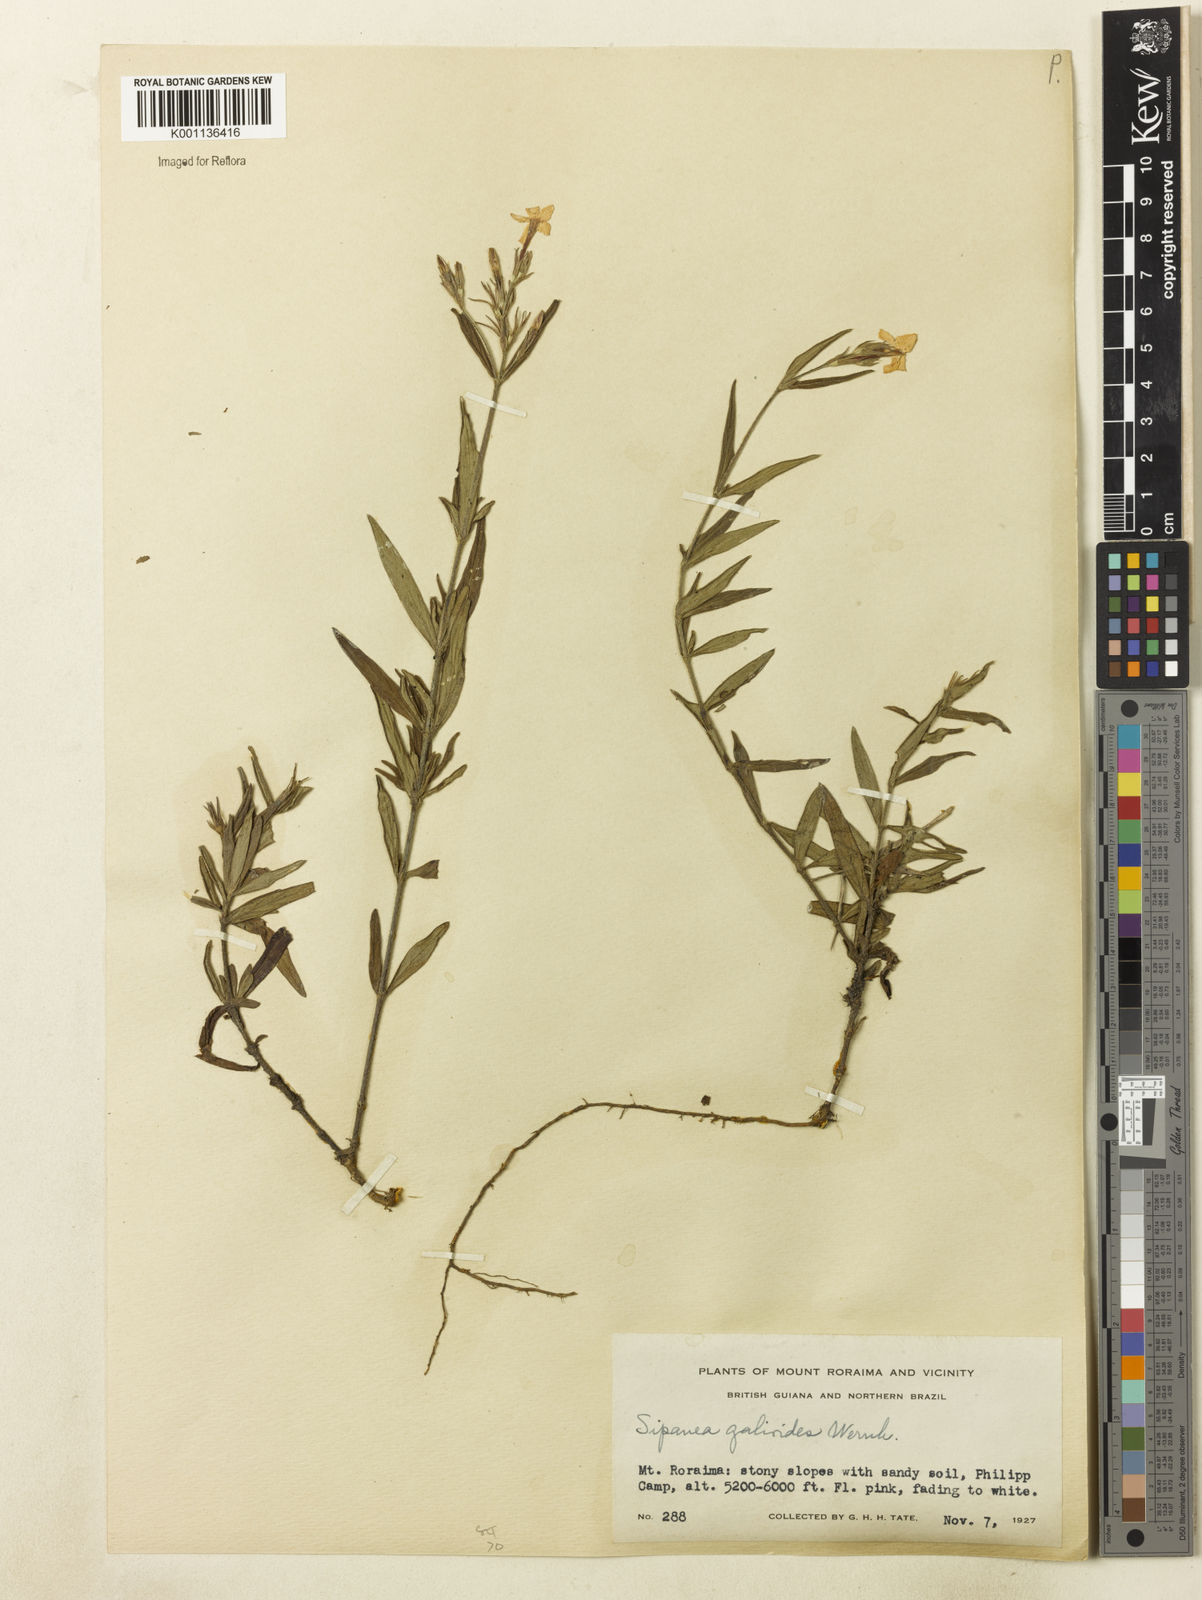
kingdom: Plantae
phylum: Tracheophyta
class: Magnoliopsida
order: Gentianales
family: Rubiaceae
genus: Sipanea
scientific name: Sipanea galioides
